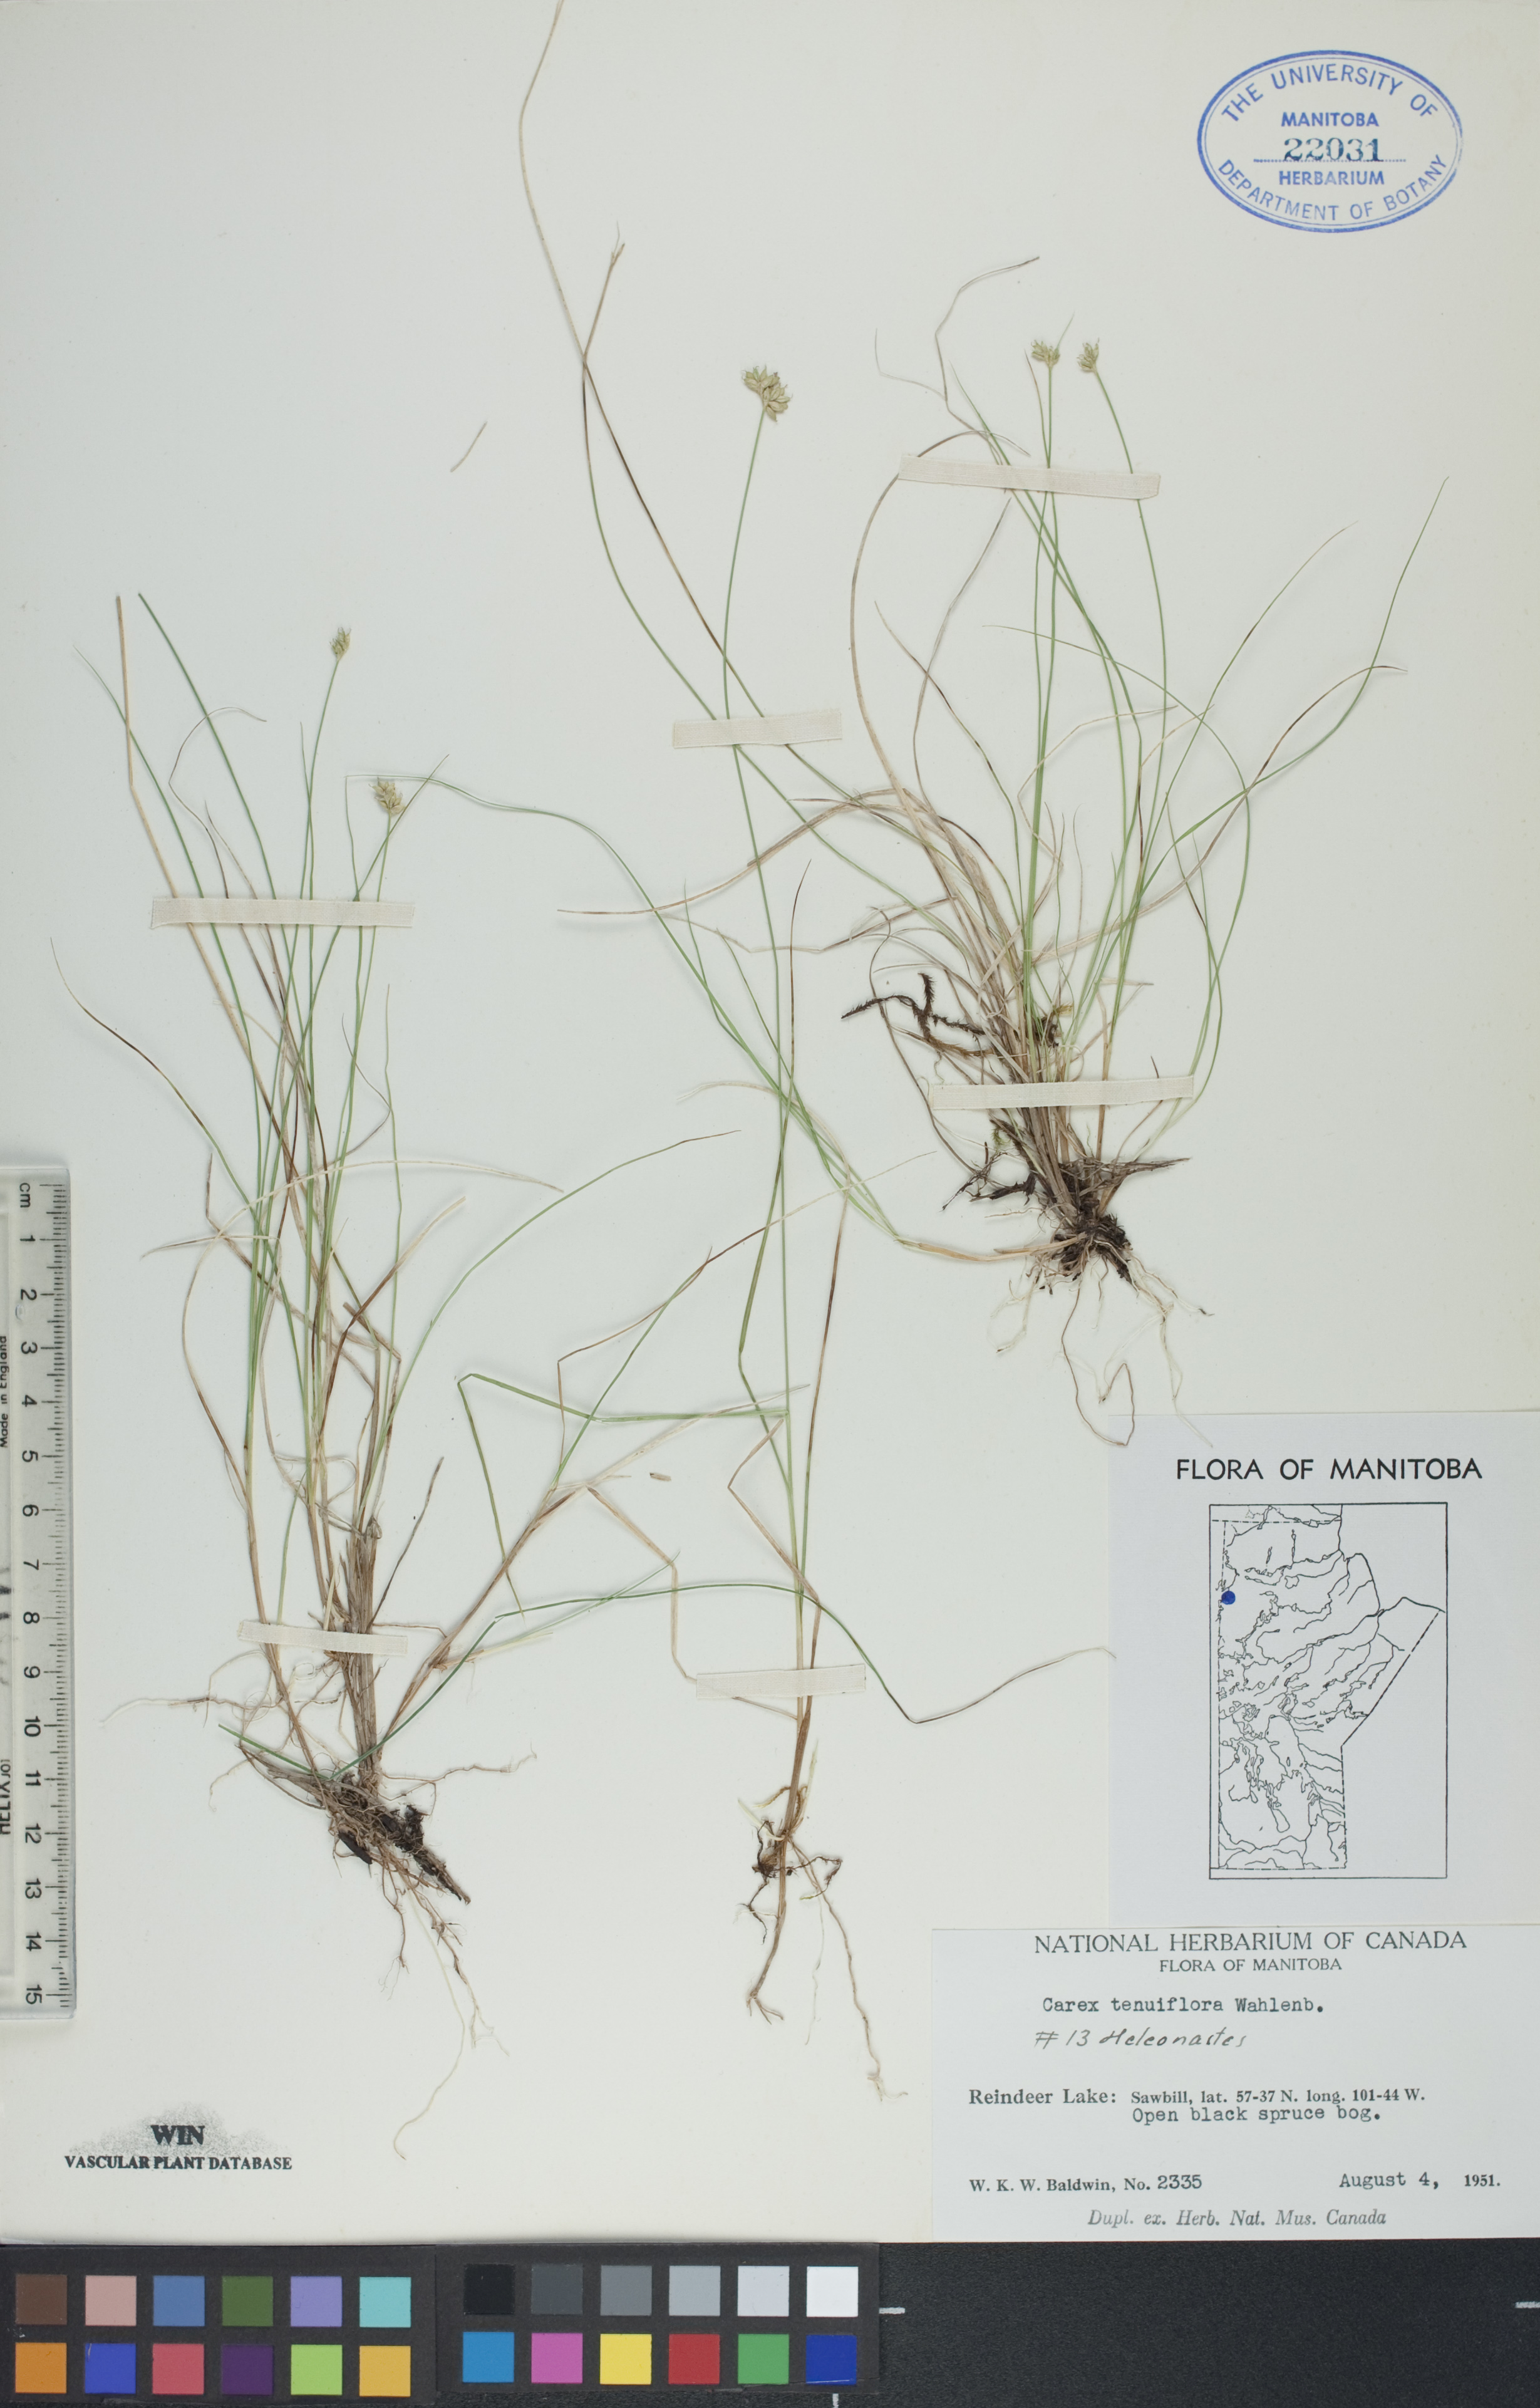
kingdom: Plantae
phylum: Tracheophyta
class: Liliopsida
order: Poales
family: Cyperaceae
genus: Carex
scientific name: Carex tenuiflora
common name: Sparse-flowered sedge
